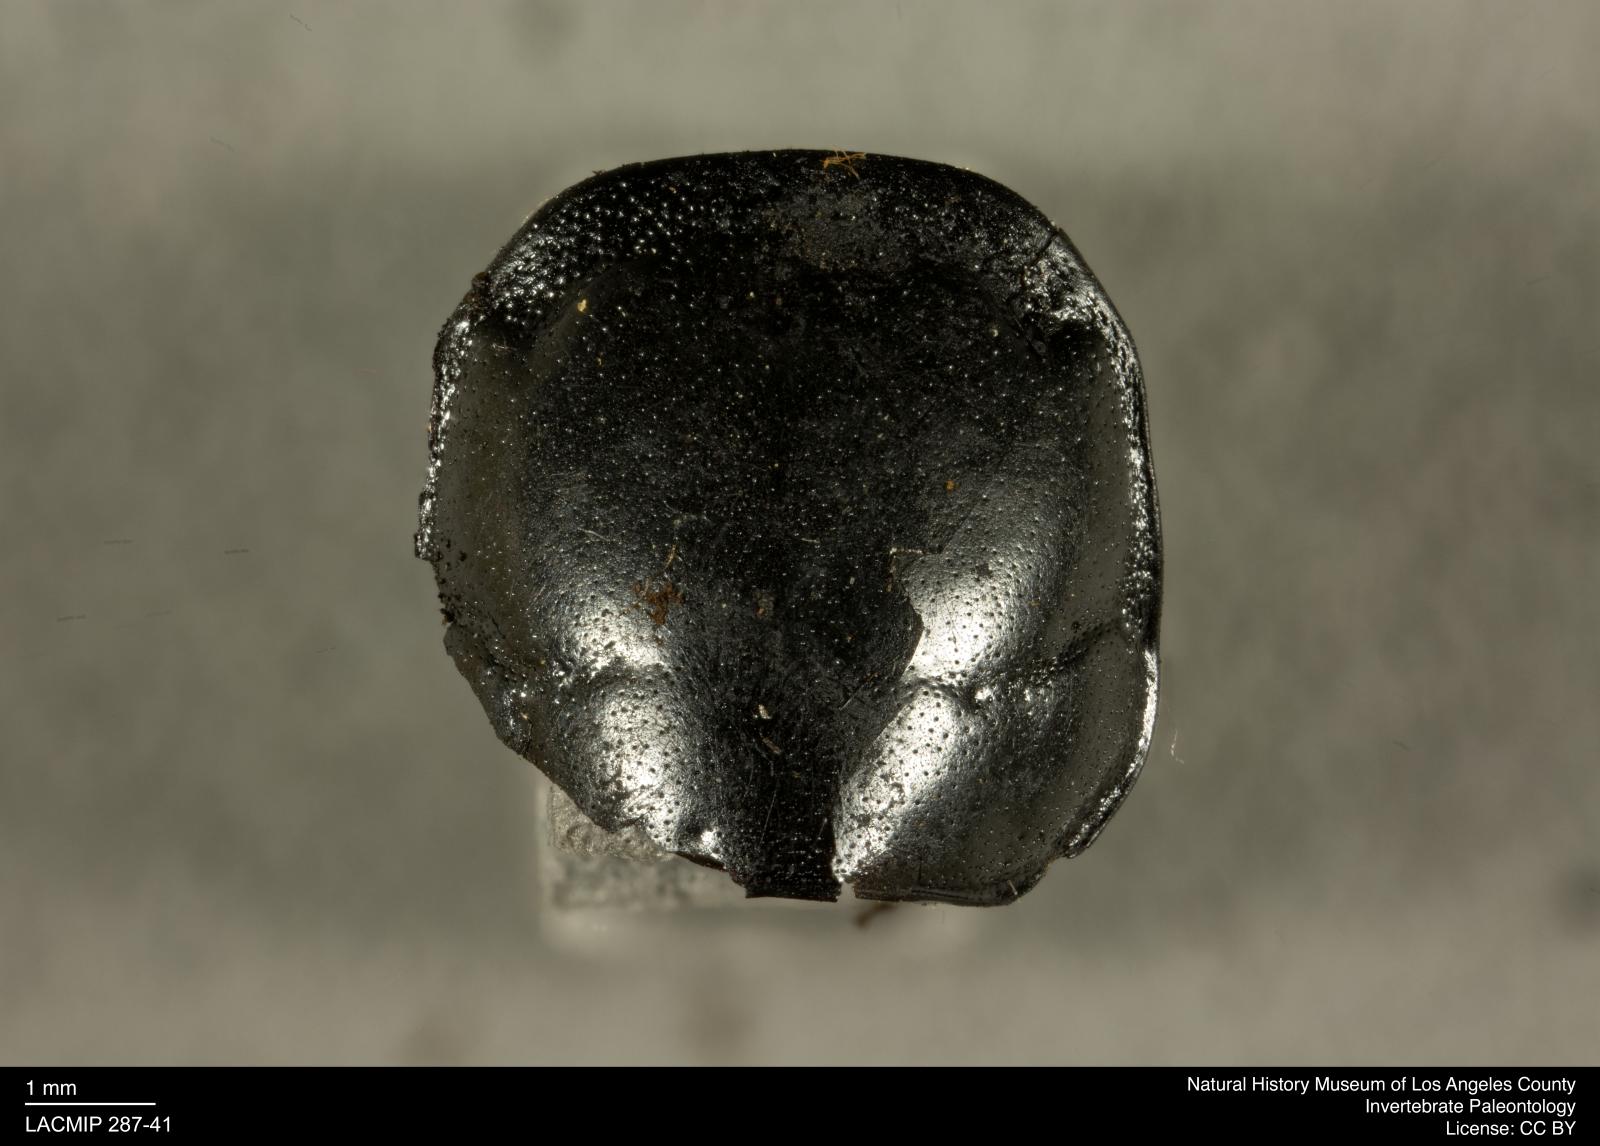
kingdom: Animalia
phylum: Arthropoda
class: Insecta
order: Coleoptera
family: Staphylinidae
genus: Nicrophorus
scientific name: Nicrophorus marginatus
